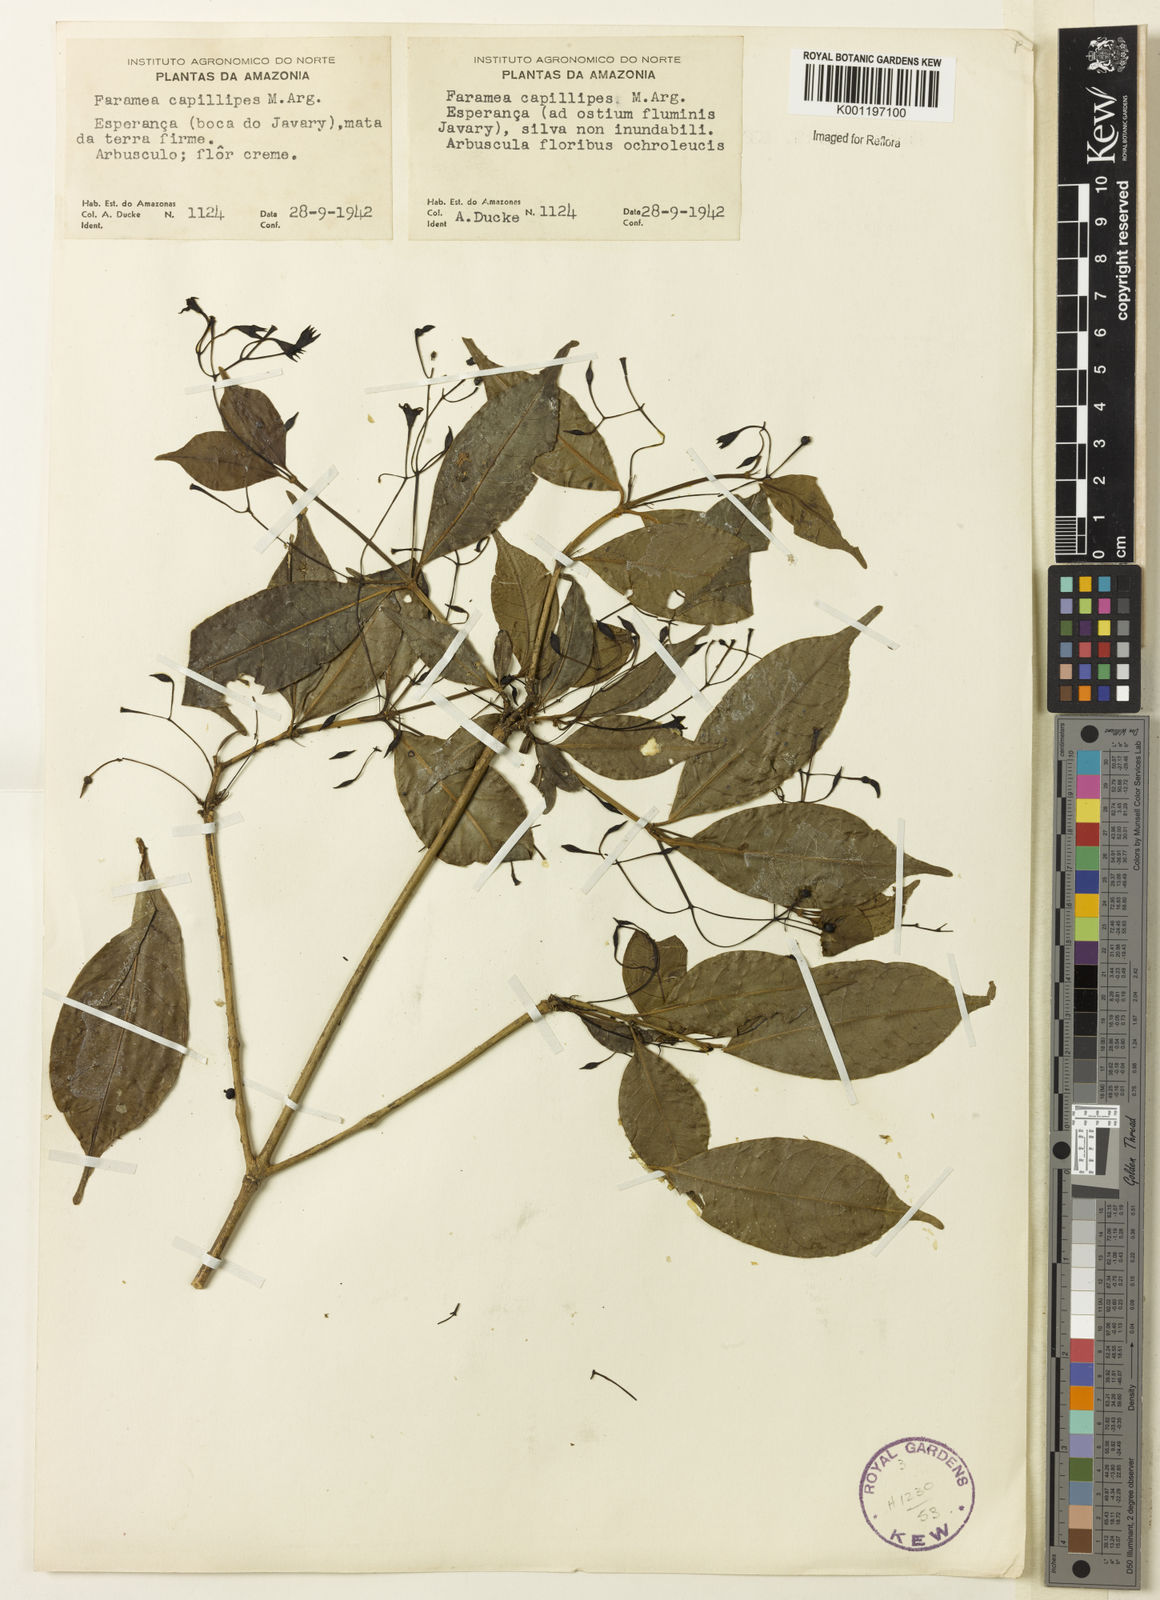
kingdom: Plantae
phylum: Tracheophyta
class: Magnoliopsida
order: Gentianales
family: Rubiaceae
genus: Faramea
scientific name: Faramea
